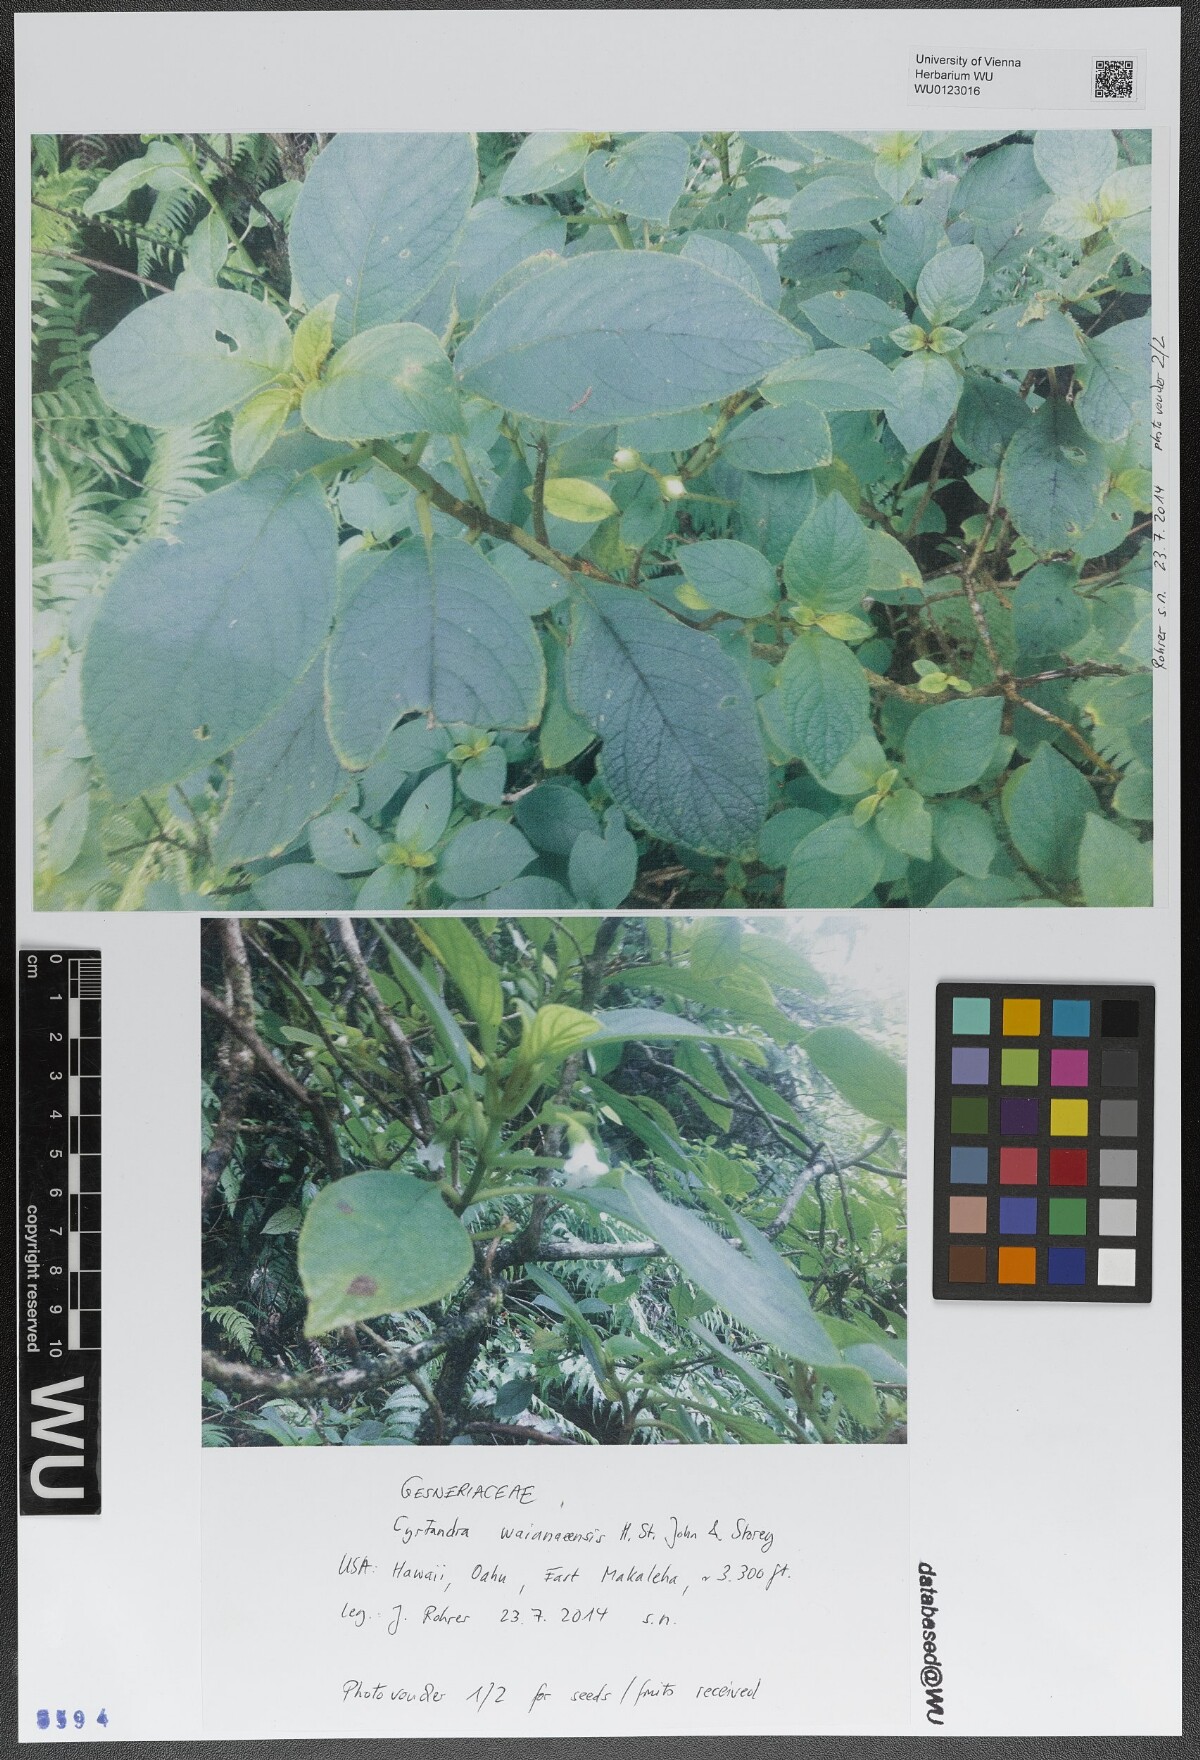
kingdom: Plantae
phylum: Tracheophyta
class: Magnoliopsida
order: Lamiales
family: Gesneriaceae
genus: Cyrtandra
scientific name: Cyrtandra waianaeensis
